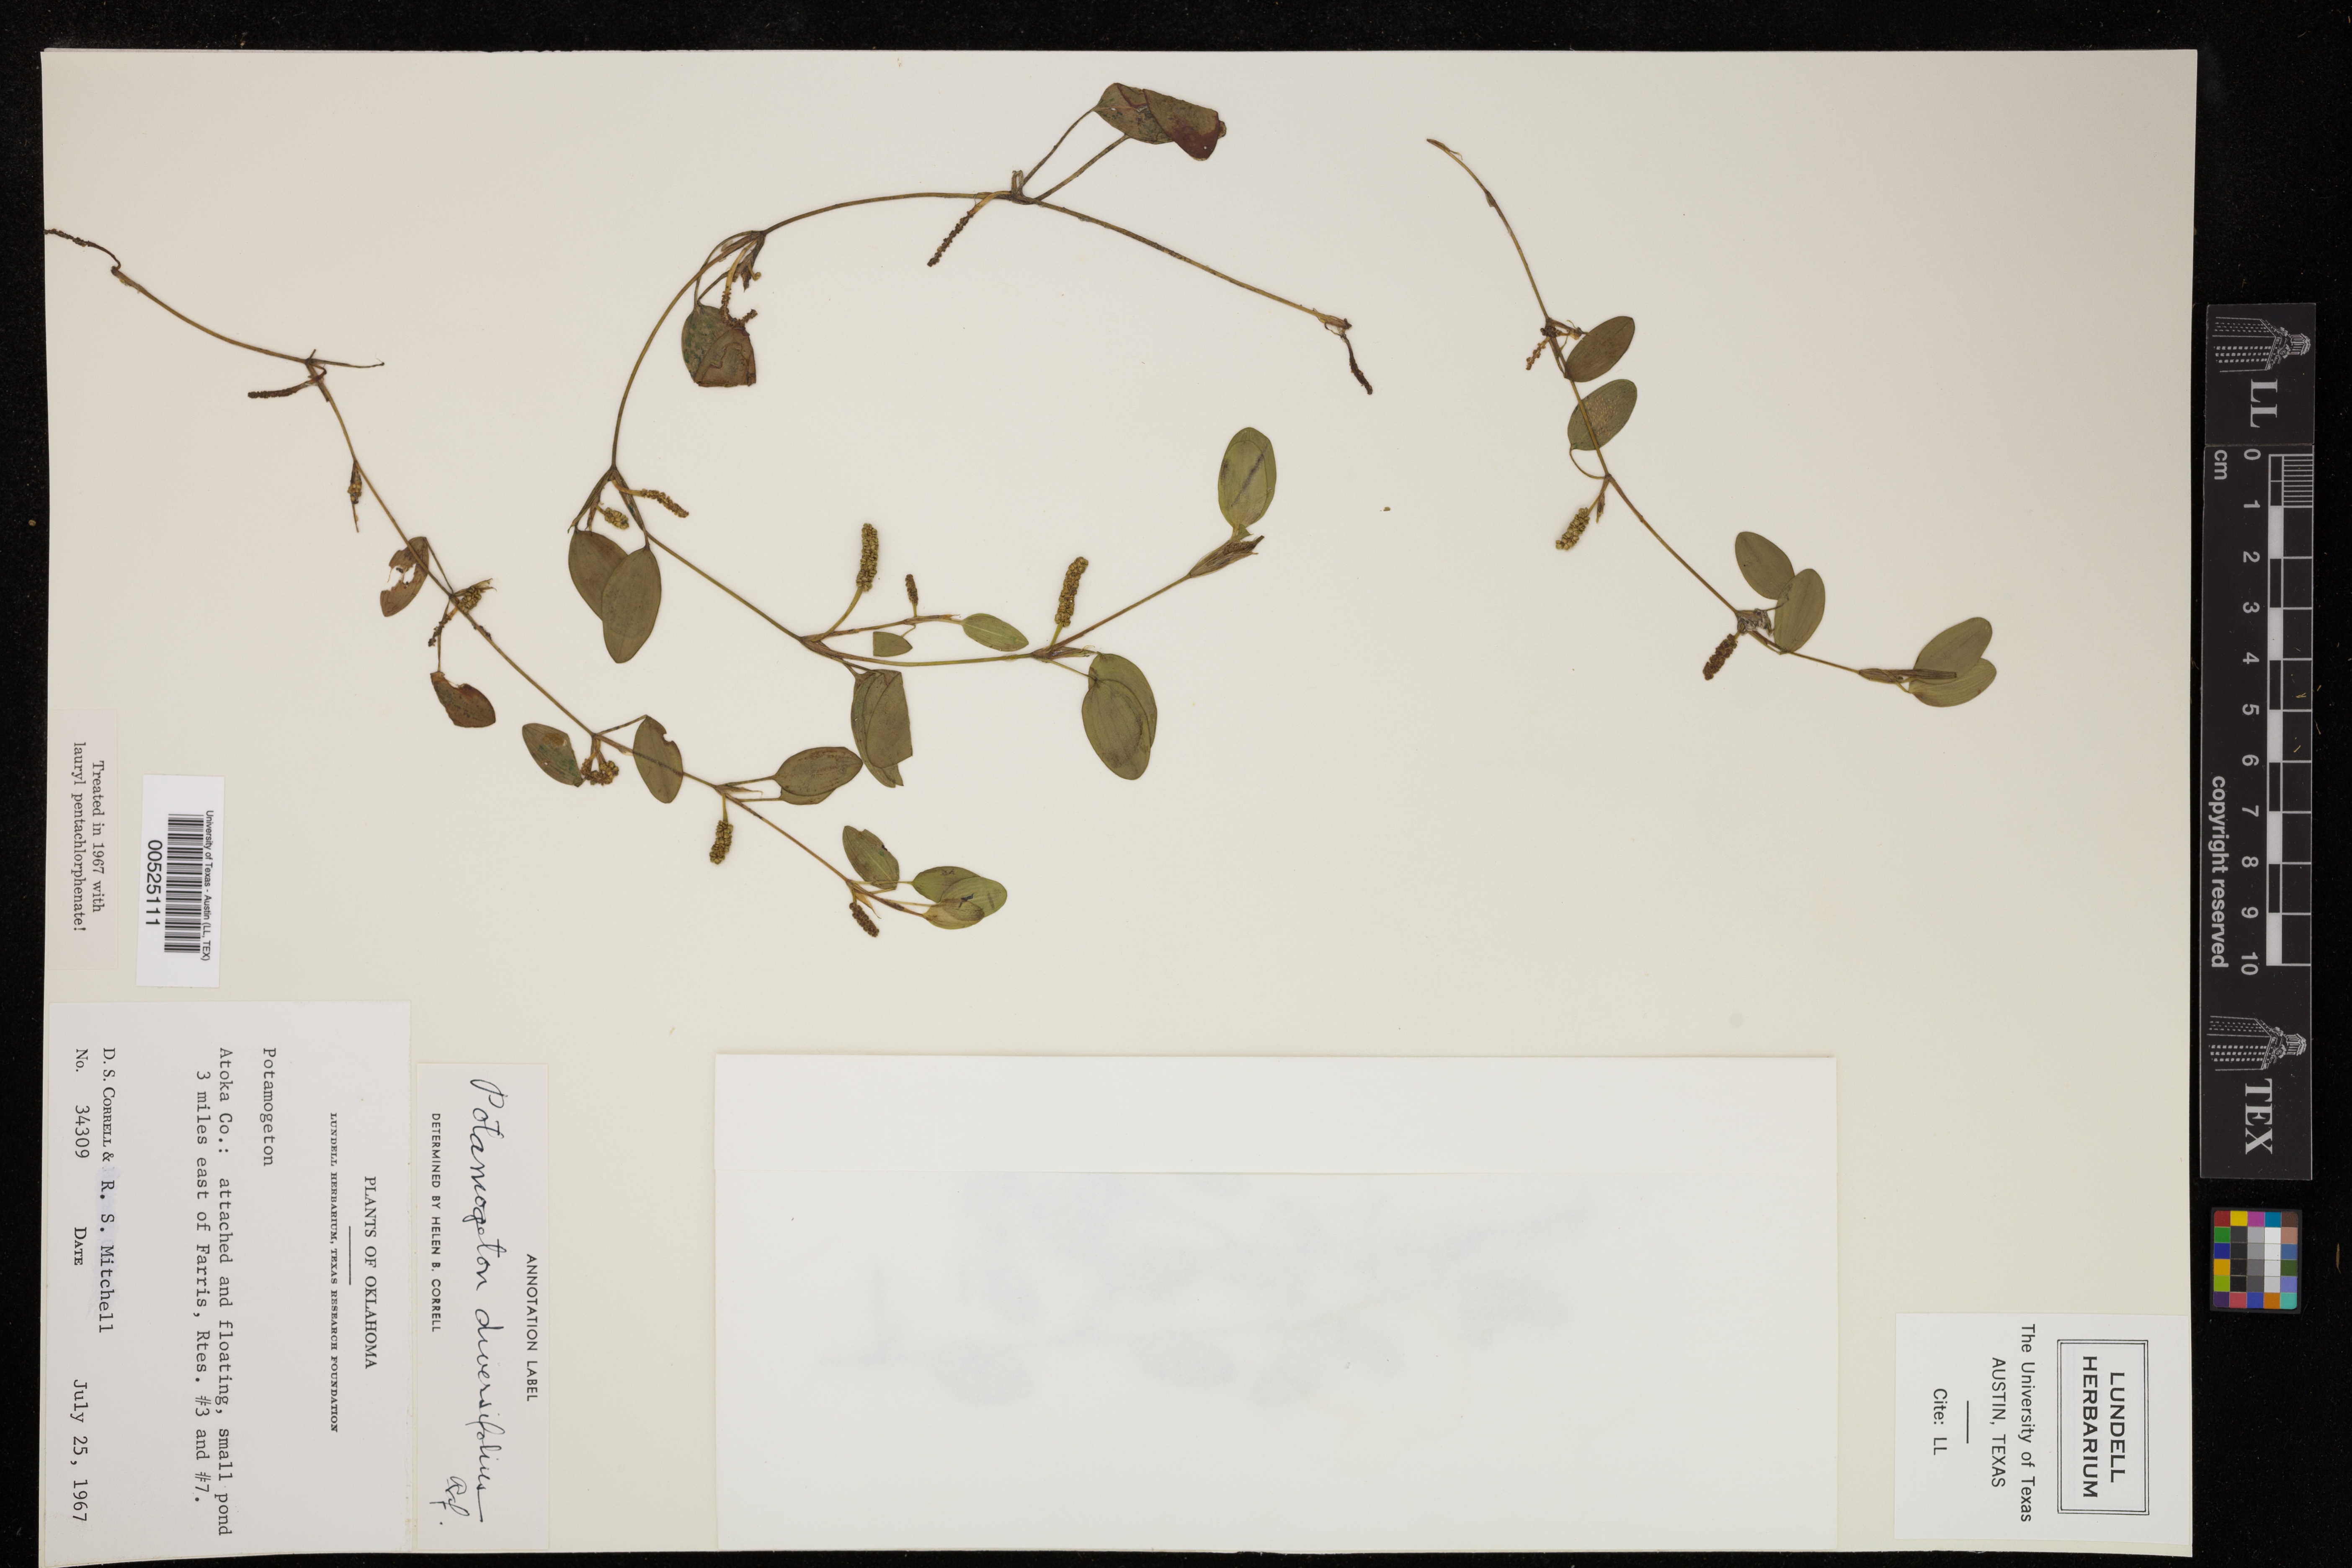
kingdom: Plantae
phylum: Tracheophyta
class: Liliopsida
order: Alismatales
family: Potamogetonaceae
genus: Potamogeton
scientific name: Potamogeton diversifolius
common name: Water-thread pondweed
